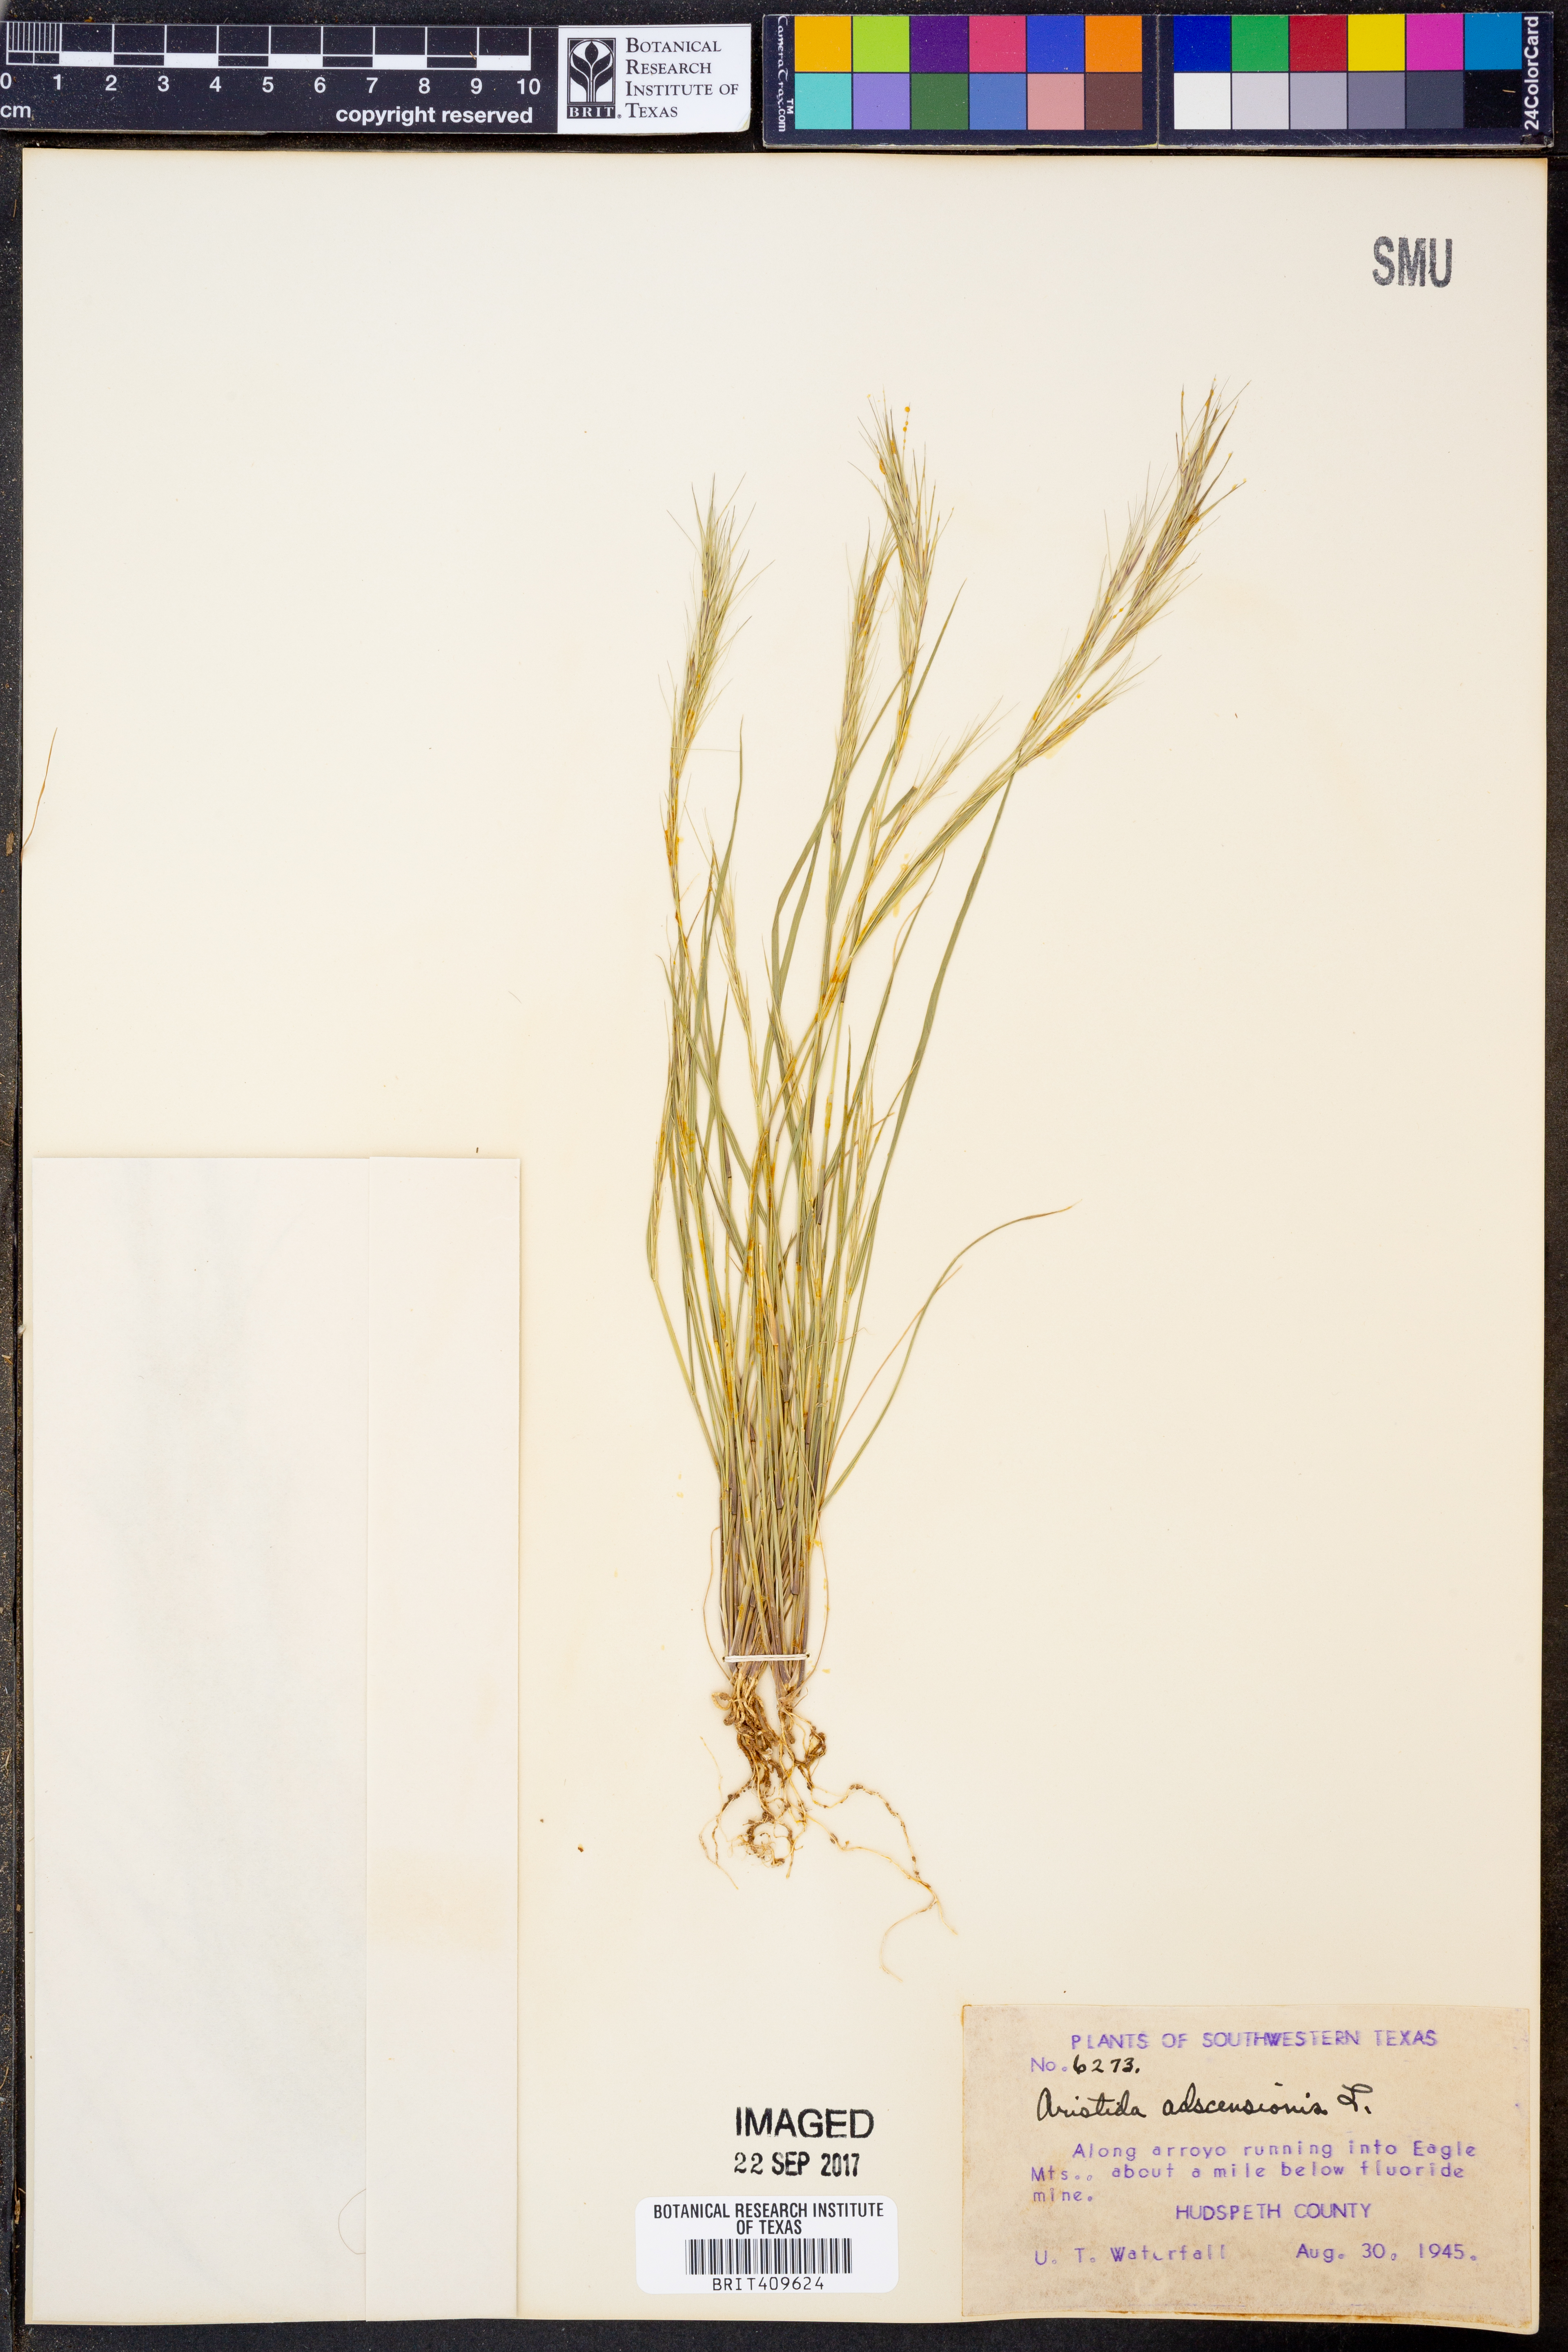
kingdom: Plantae
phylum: Tracheophyta
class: Liliopsida
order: Poales
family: Poaceae
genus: Aristida
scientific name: Aristida adscensionis
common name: Sixweeks threeawn
